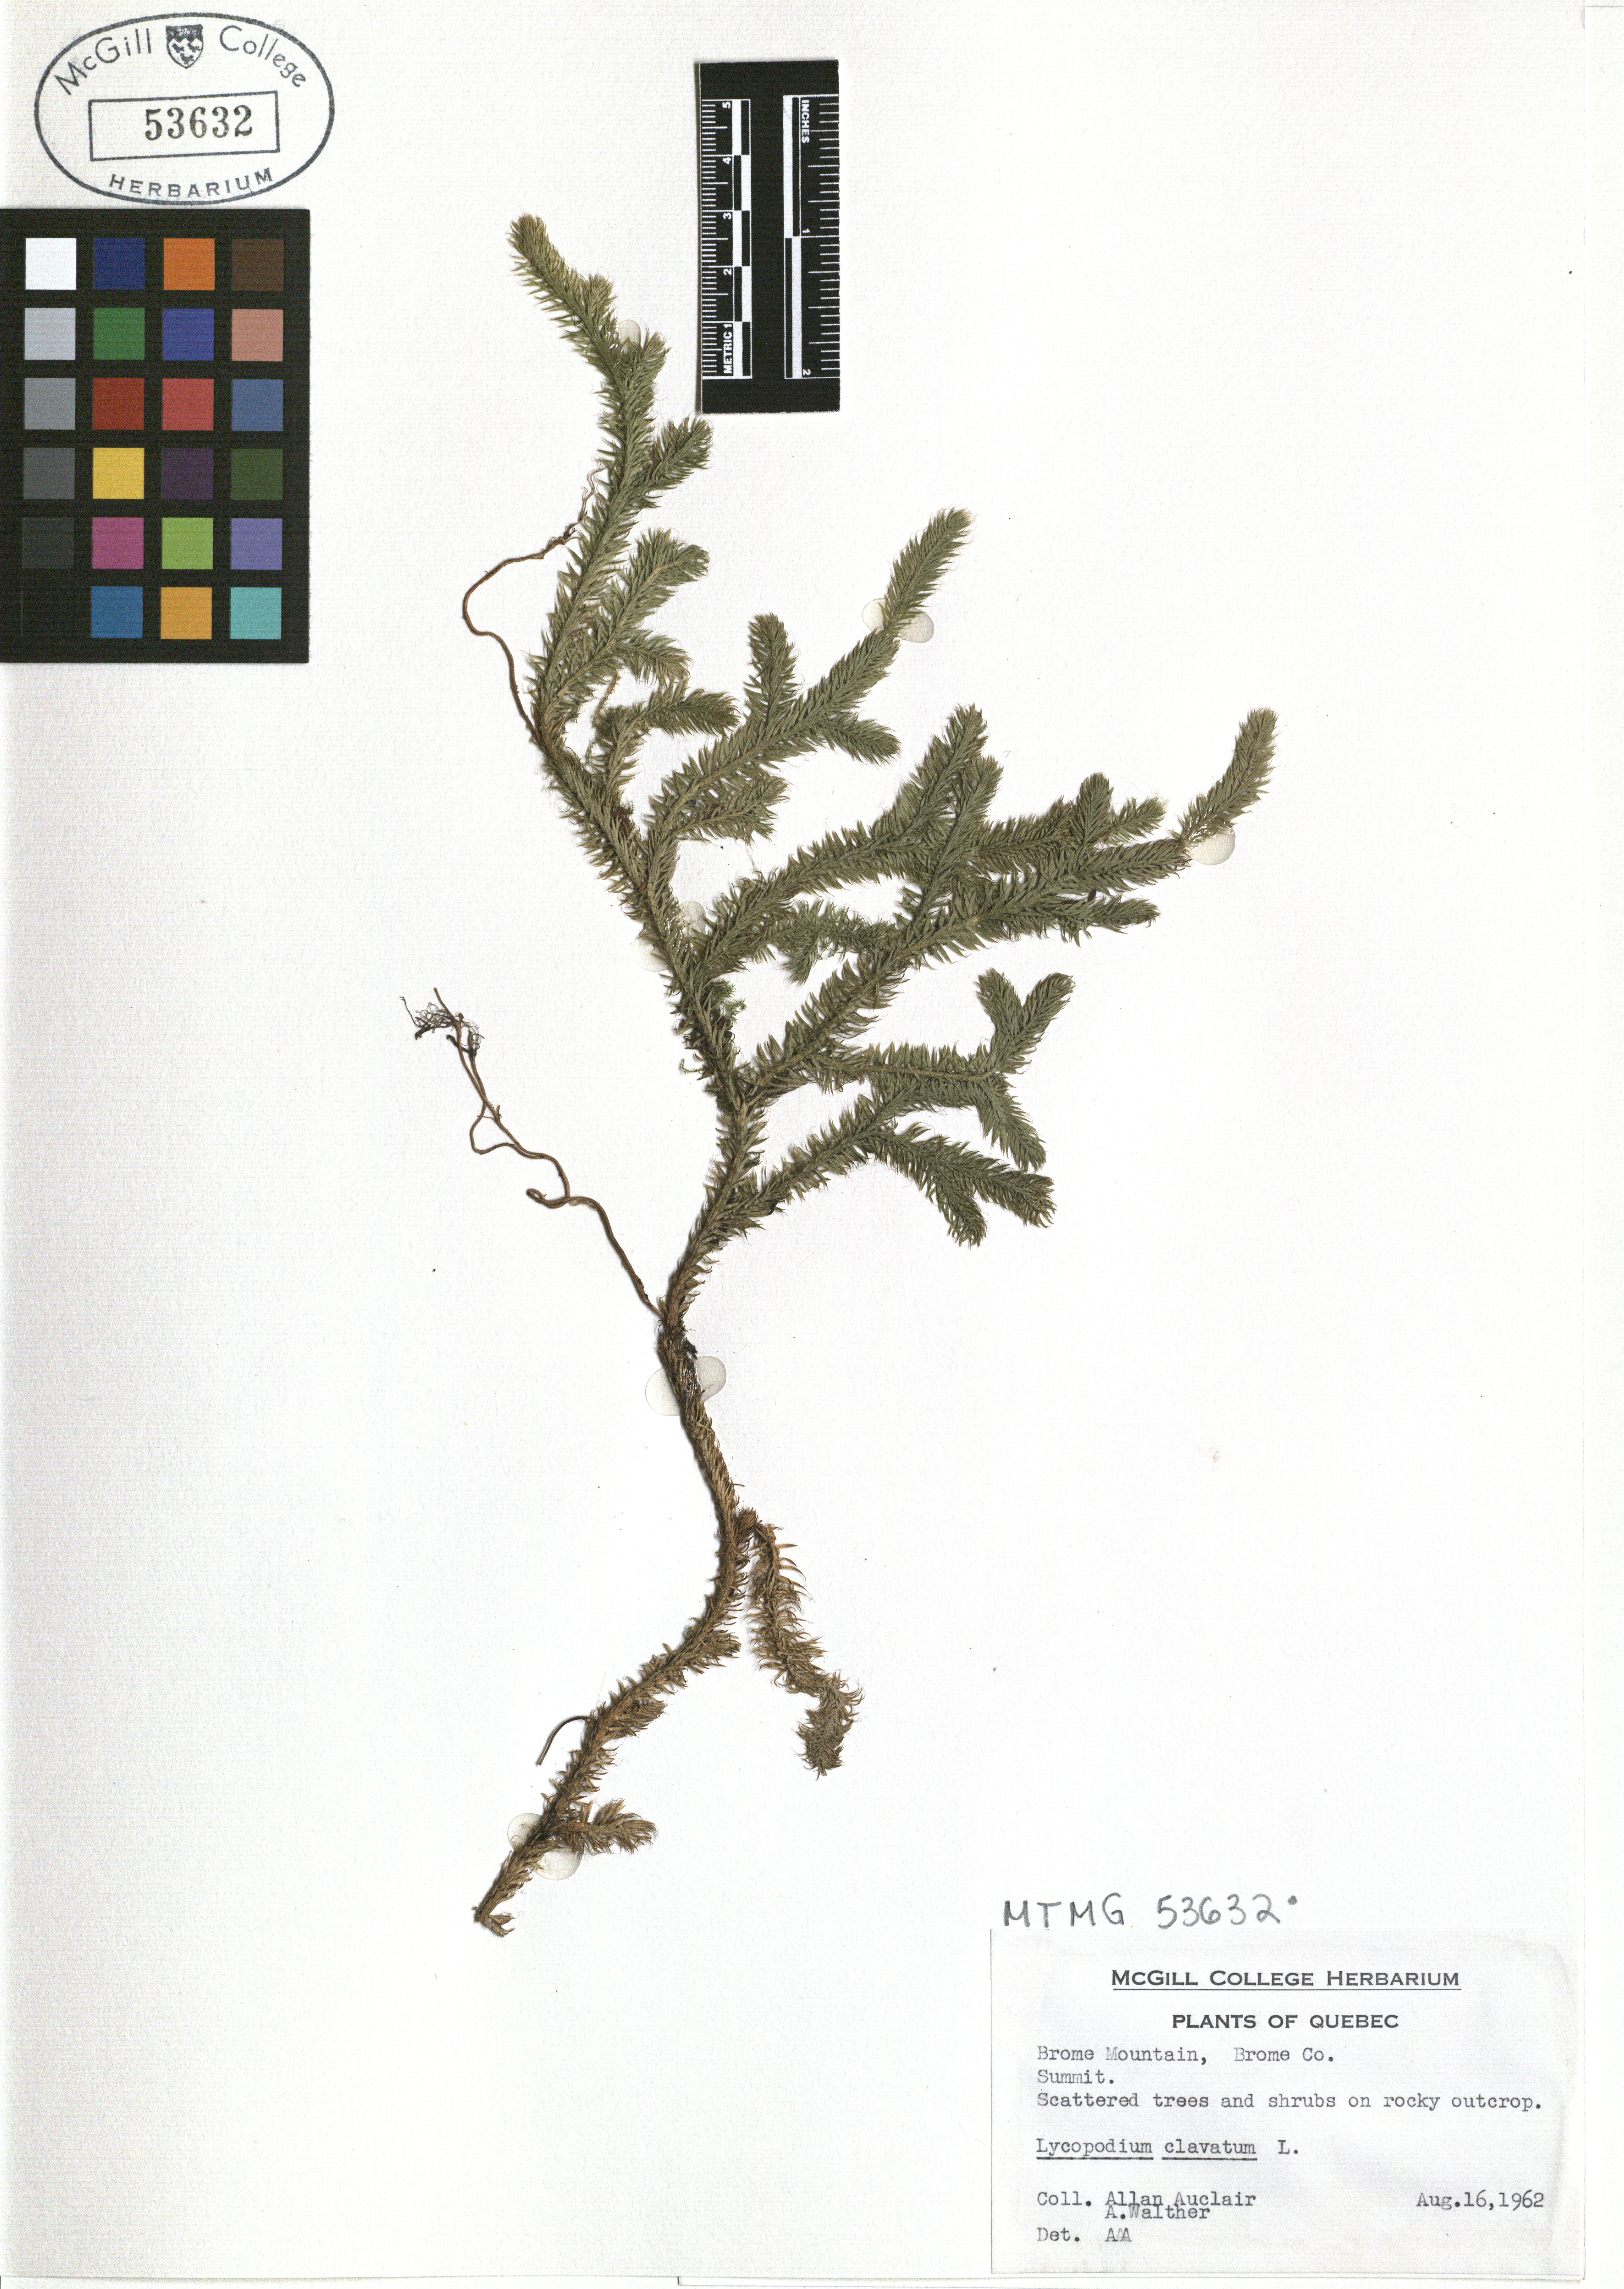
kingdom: Plantae
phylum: Tracheophyta
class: Lycopodiopsida
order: Lycopodiales
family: Lycopodiaceae
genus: Lycopodium
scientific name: Lycopodium clavatum
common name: Stag's-horn clubmoss
